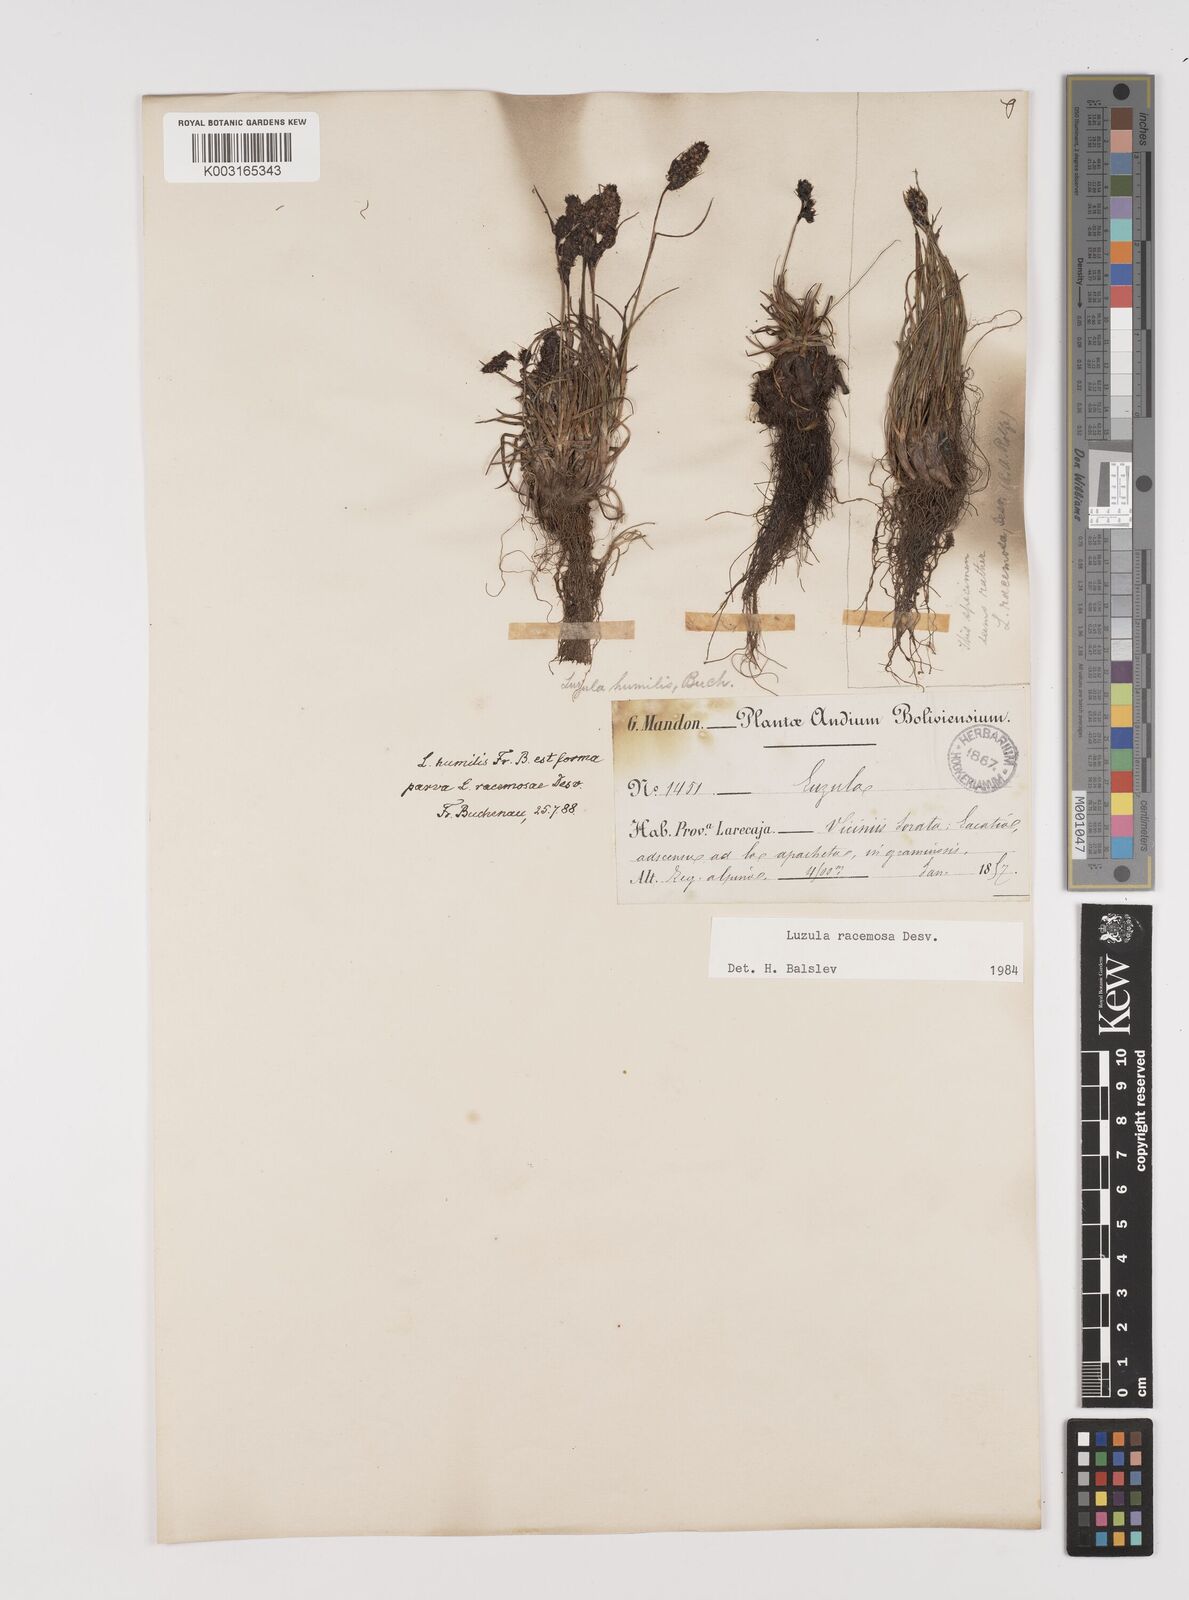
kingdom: Plantae
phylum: Tracheophyta
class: Liliopsida
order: Poales
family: Juncaceae
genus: Luzula
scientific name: Luzula racemosa
